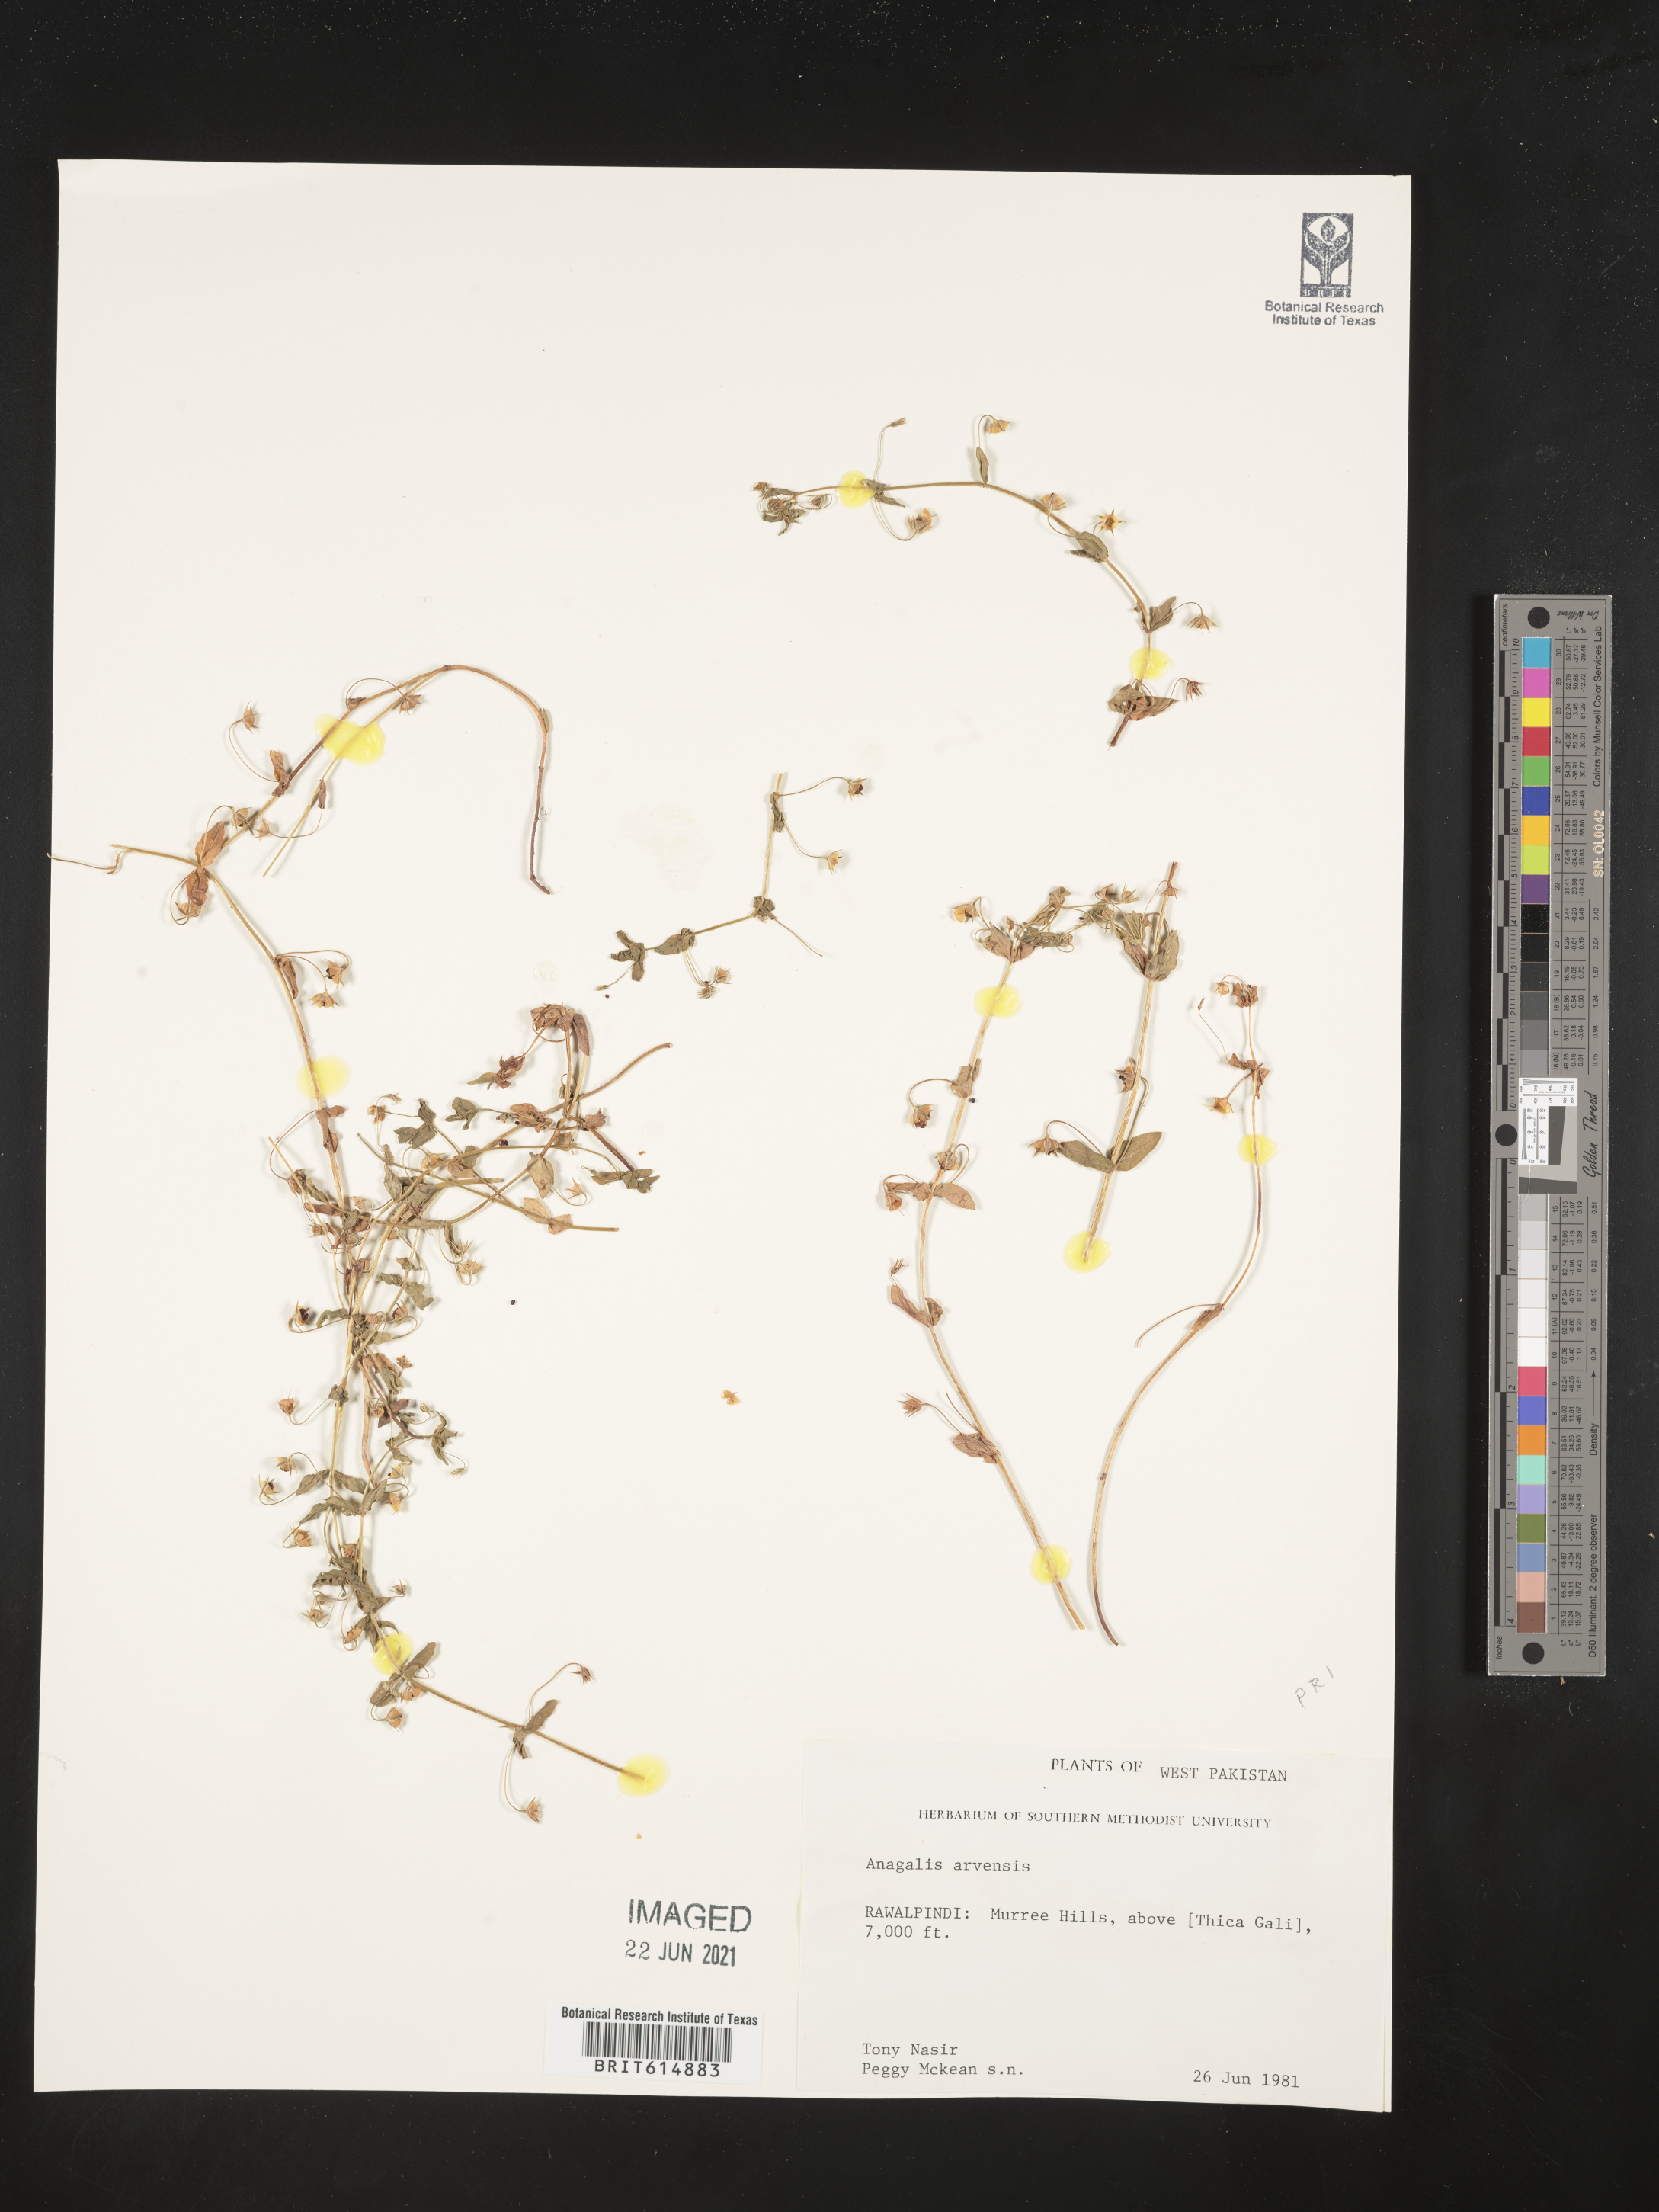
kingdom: Plantae
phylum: Tracheophyta
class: Magnoliopsida
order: Ericales
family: Primulaceae
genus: Lysimachia
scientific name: Lysimachia arvensis
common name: Scarlet pimpernel
